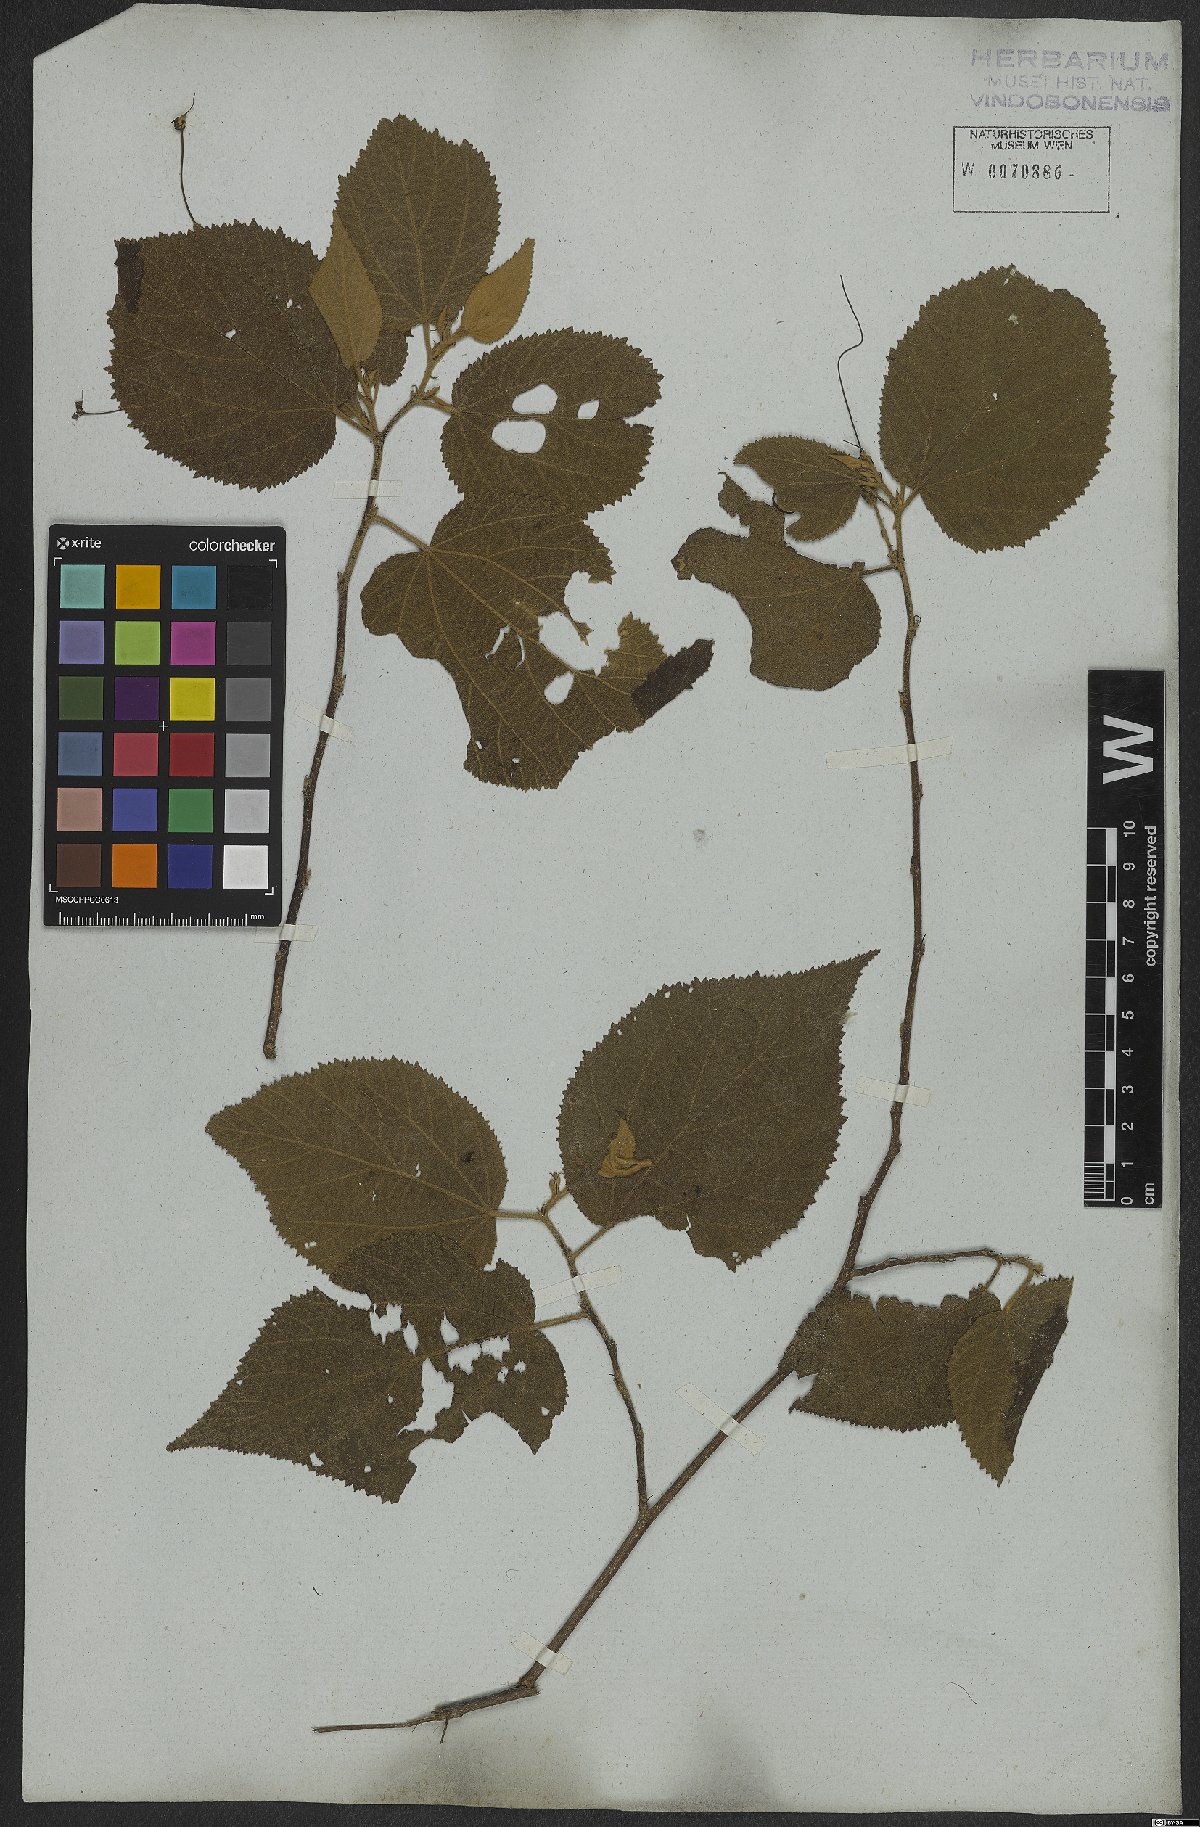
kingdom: Plantae
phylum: Tracheophyta
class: Magnoliopsida
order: Malvales
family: Malvaceae
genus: Helicteres
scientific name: Helicteres ovata
